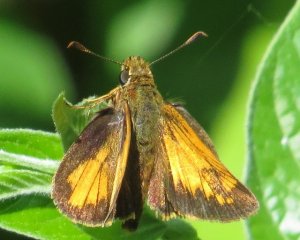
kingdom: Animalia
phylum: Arthropoda
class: Insecta
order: Lepidoptera
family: Hesperiidae
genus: Lon
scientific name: Lon hobomok
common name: Hobomok Skipper
